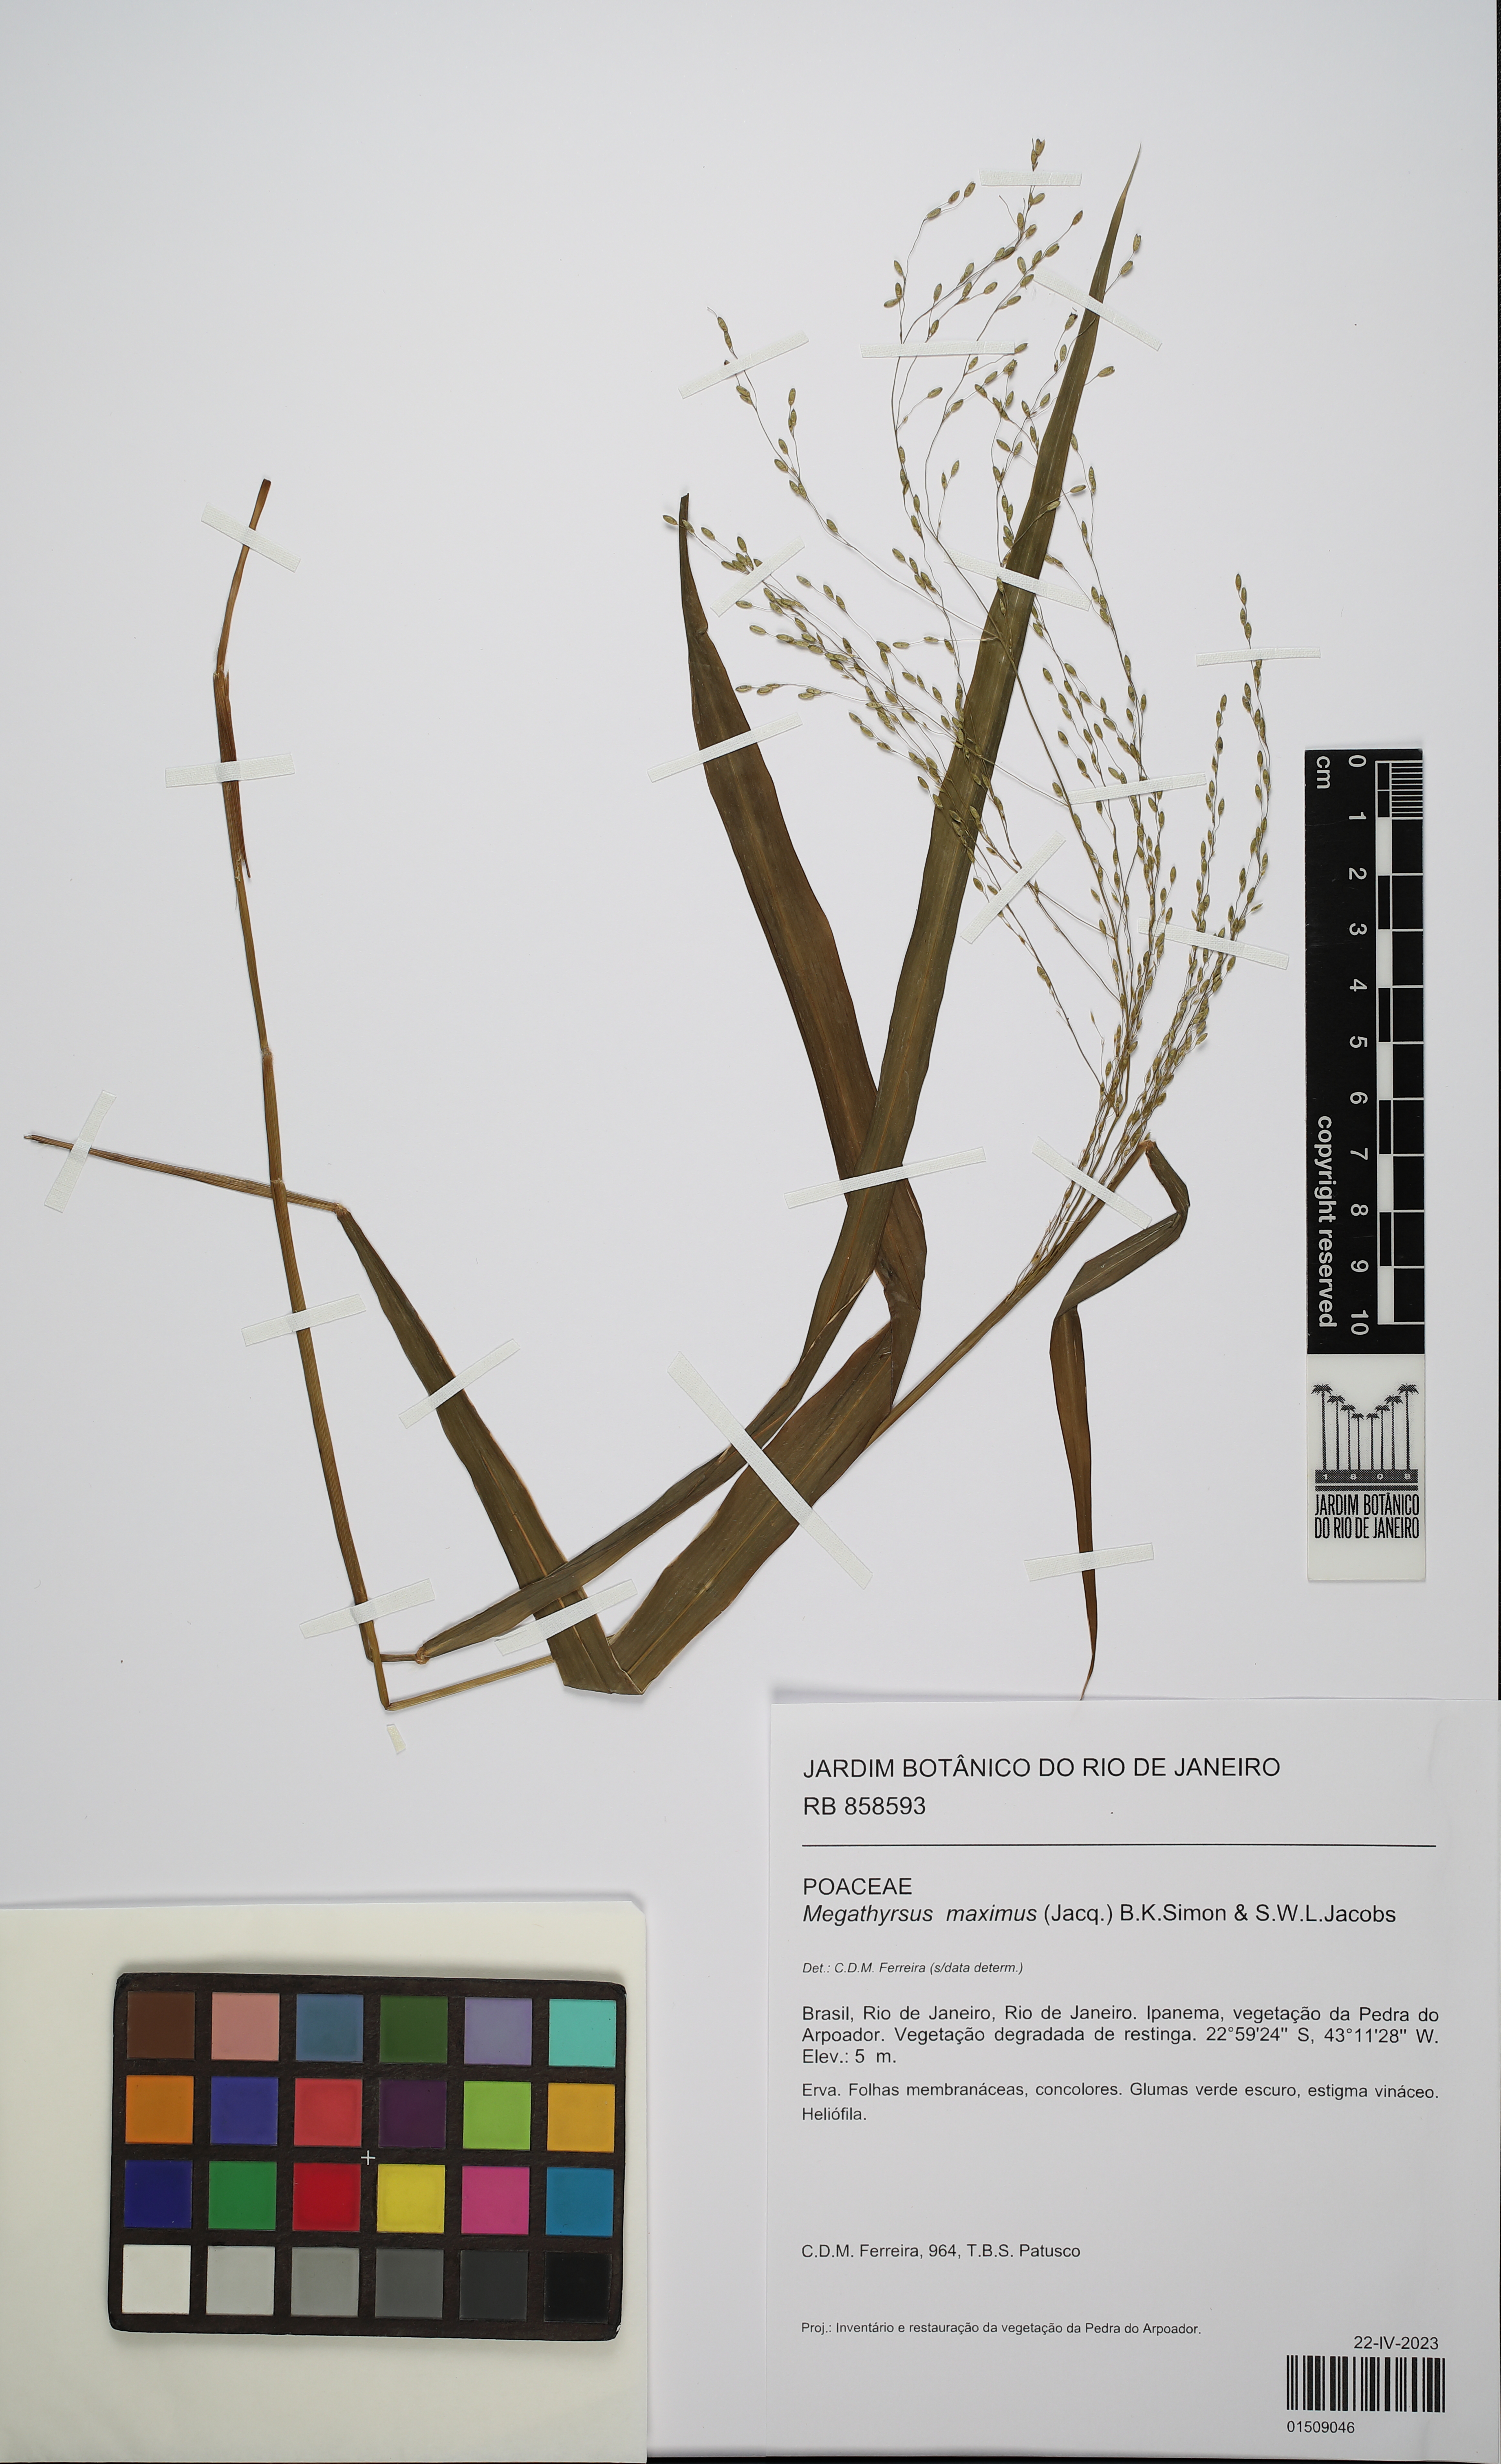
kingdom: Plantae
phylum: Tracheophyta
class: Liliopsida
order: Poales
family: Poaceae
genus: Megathyrsus
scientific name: Megathyrsus maximus
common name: Guineagrass
